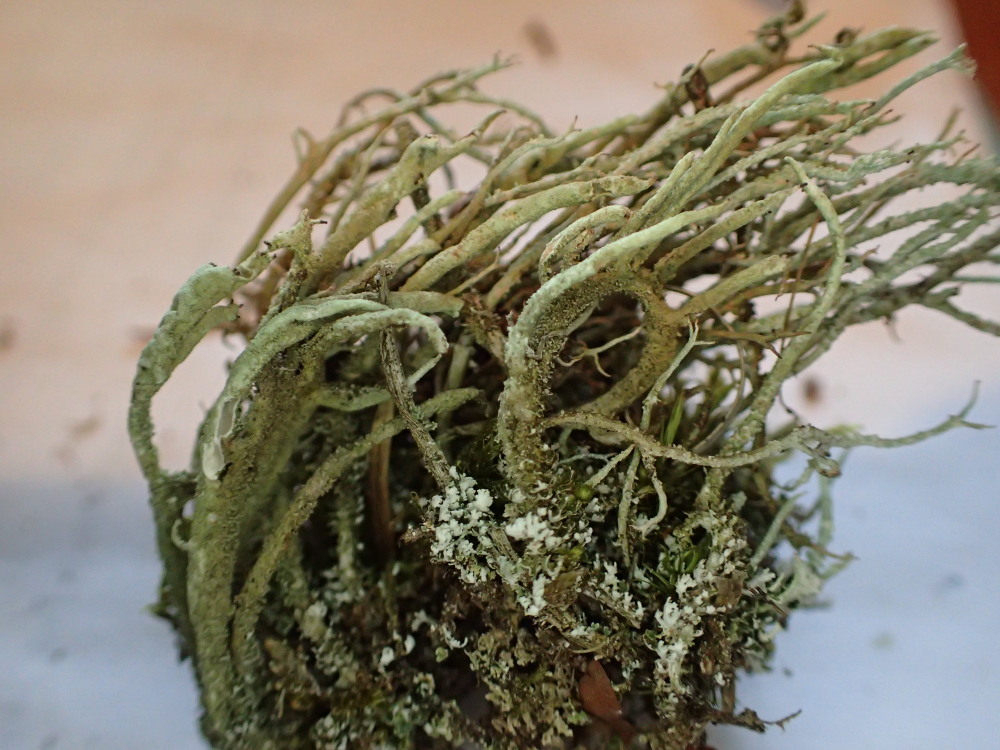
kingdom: Fungi
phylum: Ascomycota
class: Lecanoromycetes
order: Lecanorales
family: Cladoniaceae
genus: Cladonia
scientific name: Cladonia glauca
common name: grågrøn bægerlav
